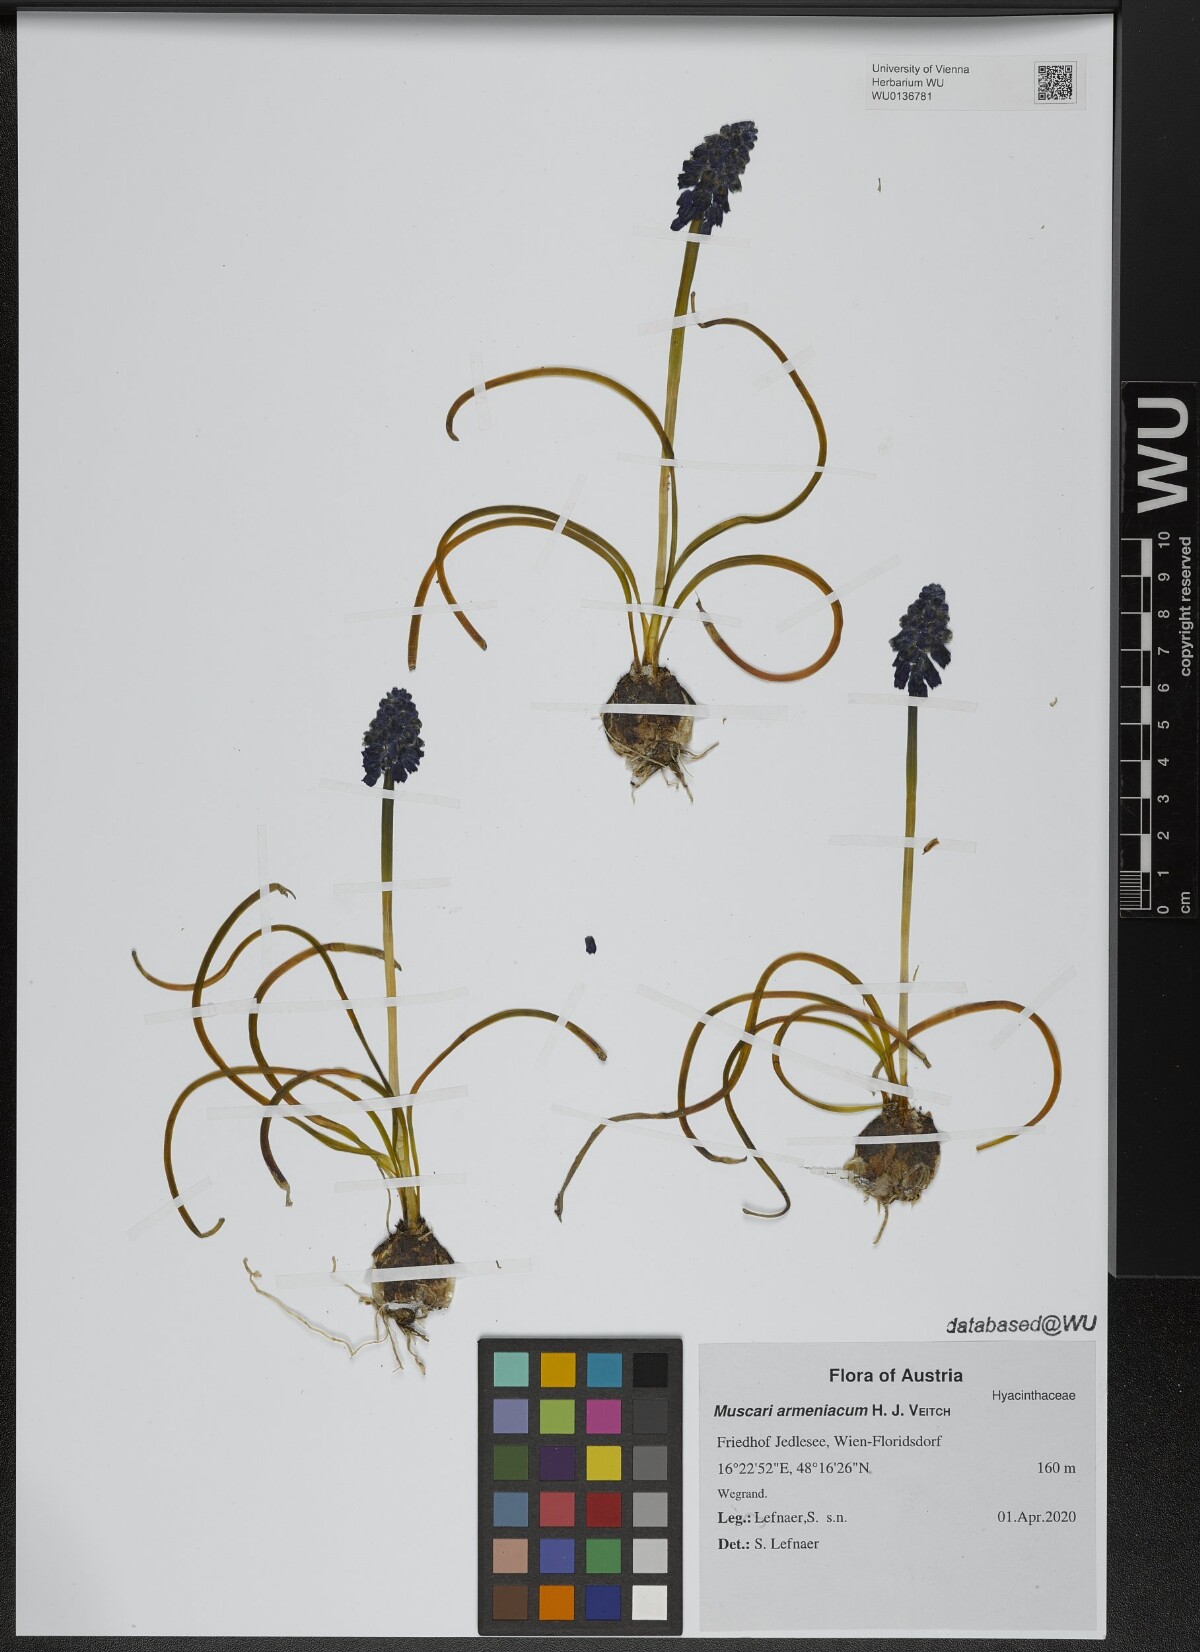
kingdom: Plantae
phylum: Tracheophyta
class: Liliopsida
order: Asparagales
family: Asparagaceae
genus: Muscari
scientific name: Muscari armeniacum
